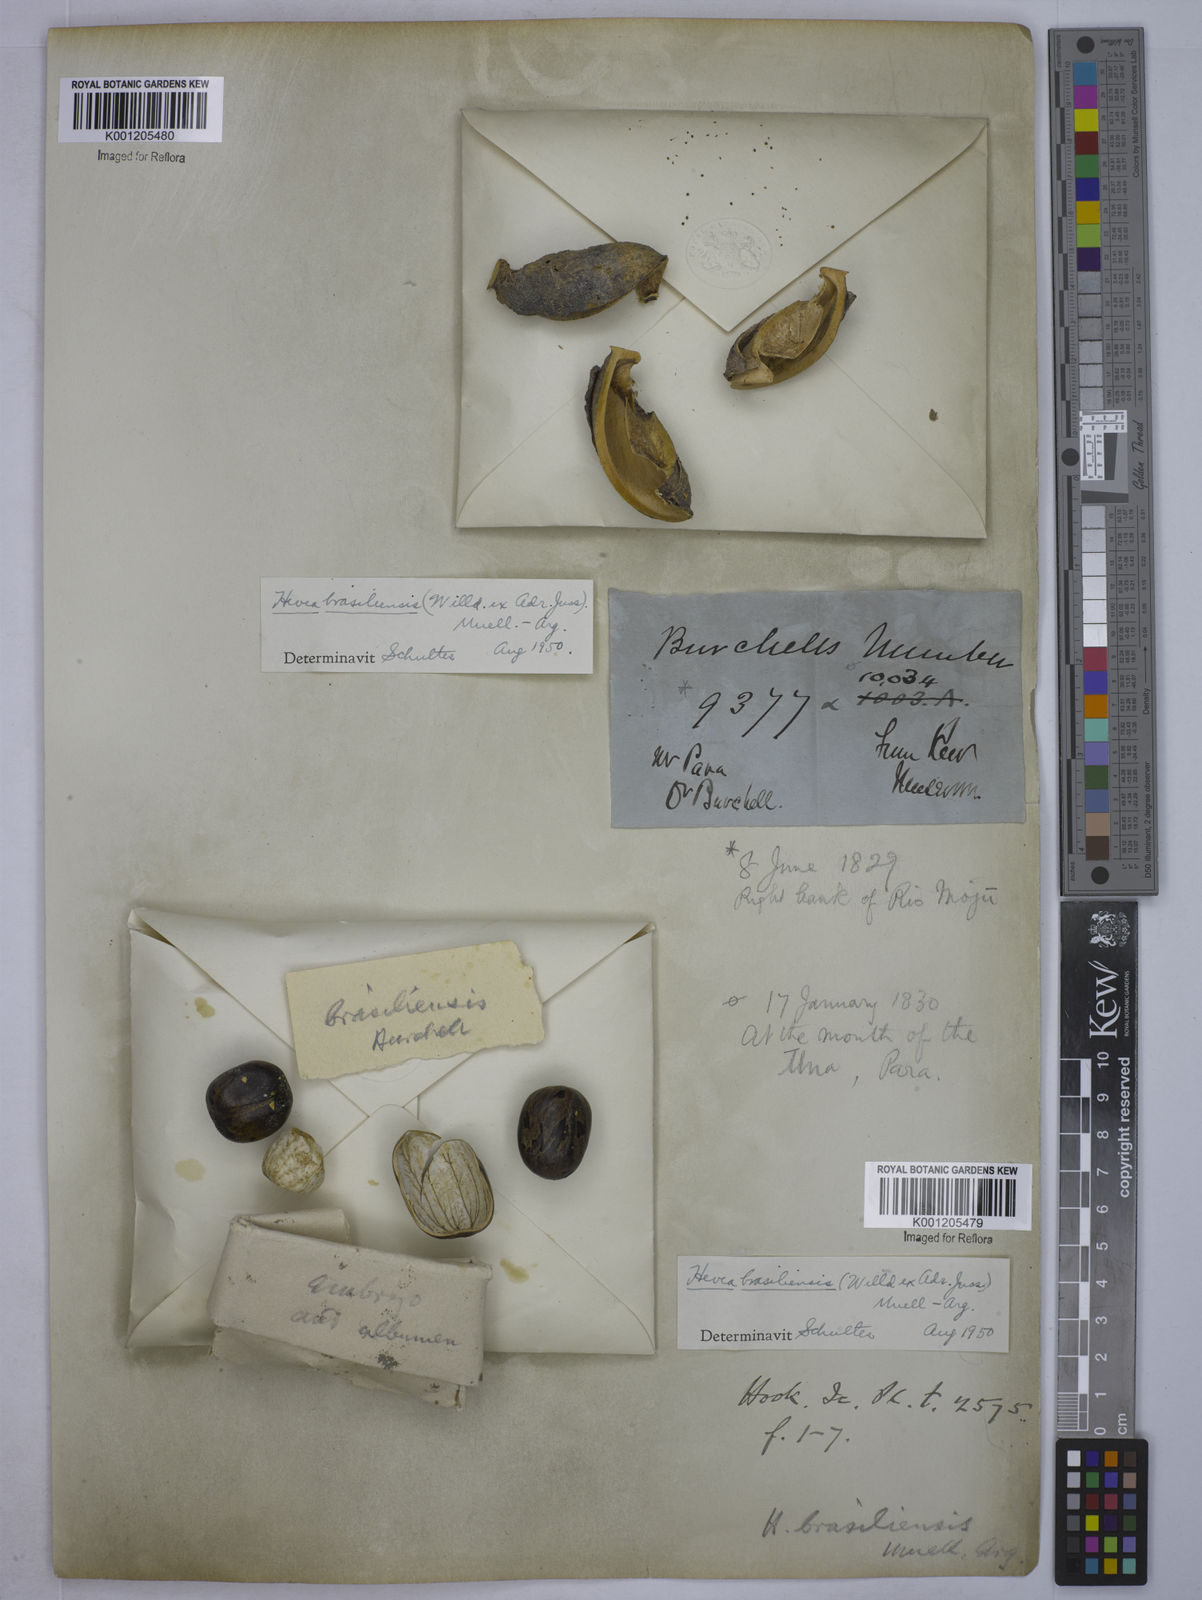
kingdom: Plantae
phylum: Tracheophyta
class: Magnoliopsida
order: Malpighiales
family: Euphorbiaceae
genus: Hevea
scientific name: Hevea
